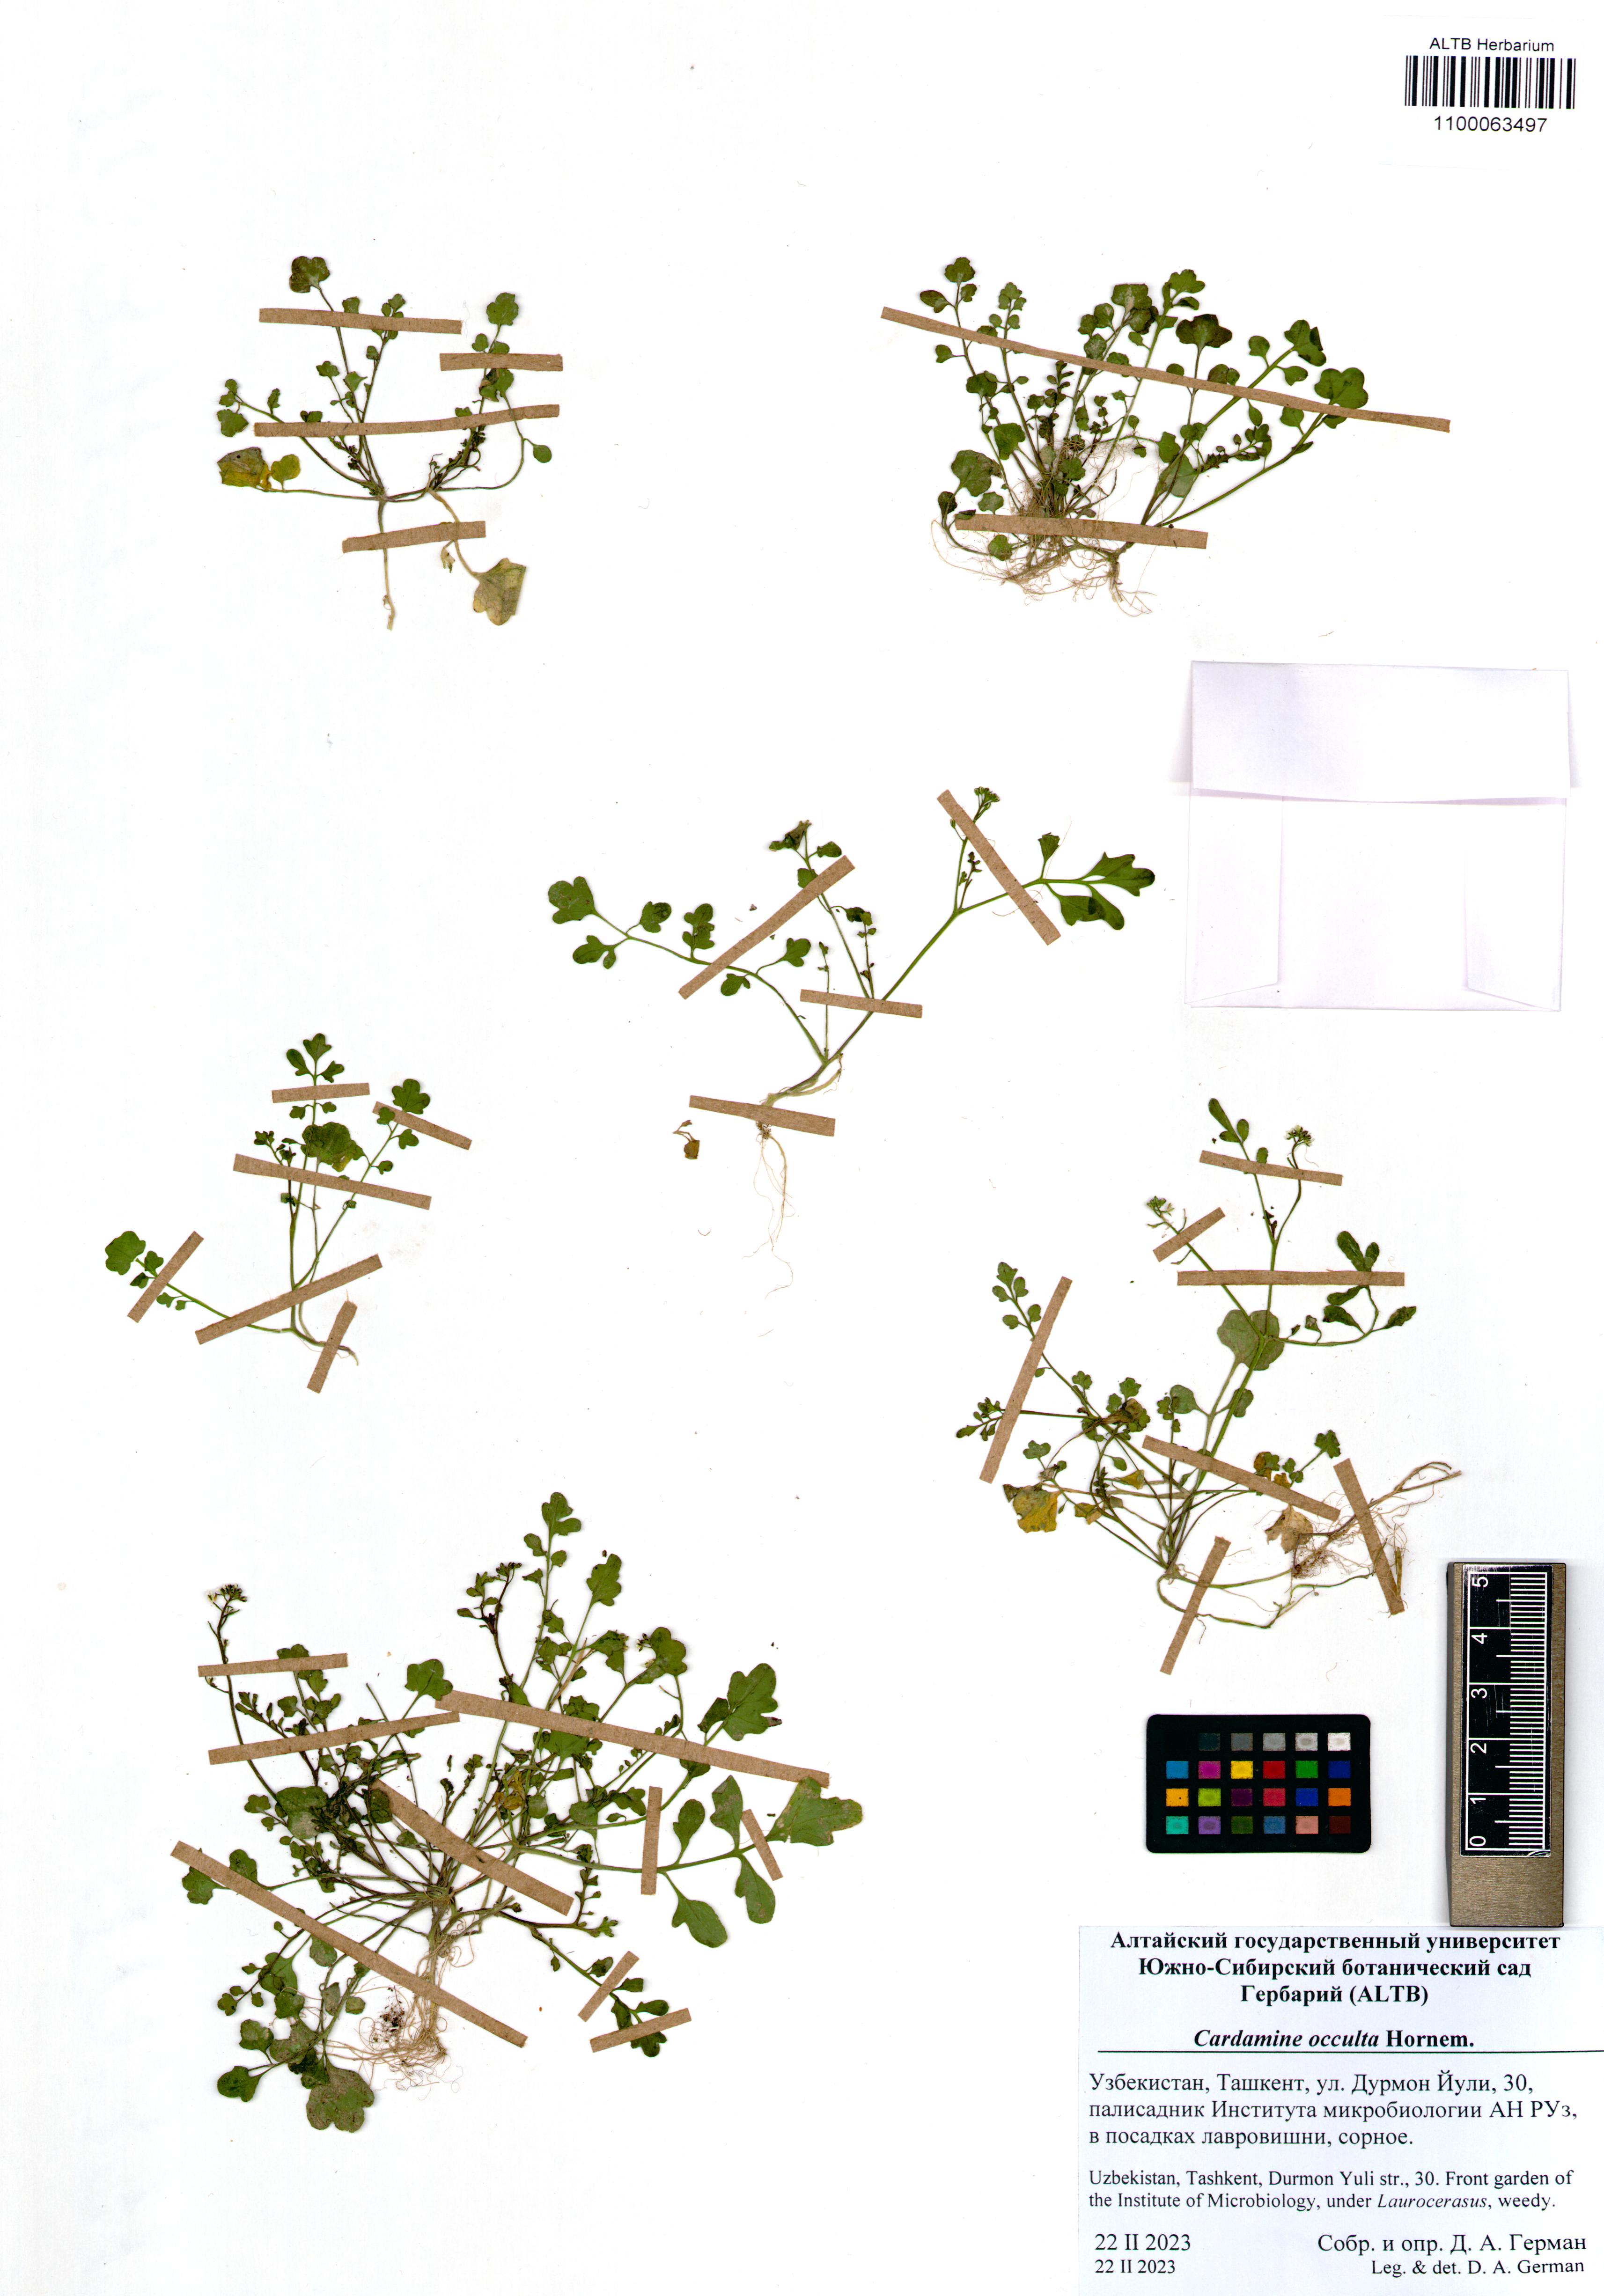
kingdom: Plantae
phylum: Tracheophyta
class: Magnoliopsida
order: Brassicales
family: Brassicaceae
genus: Cardamine
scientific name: Cardamine occulta
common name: Asian wavy bittercress
